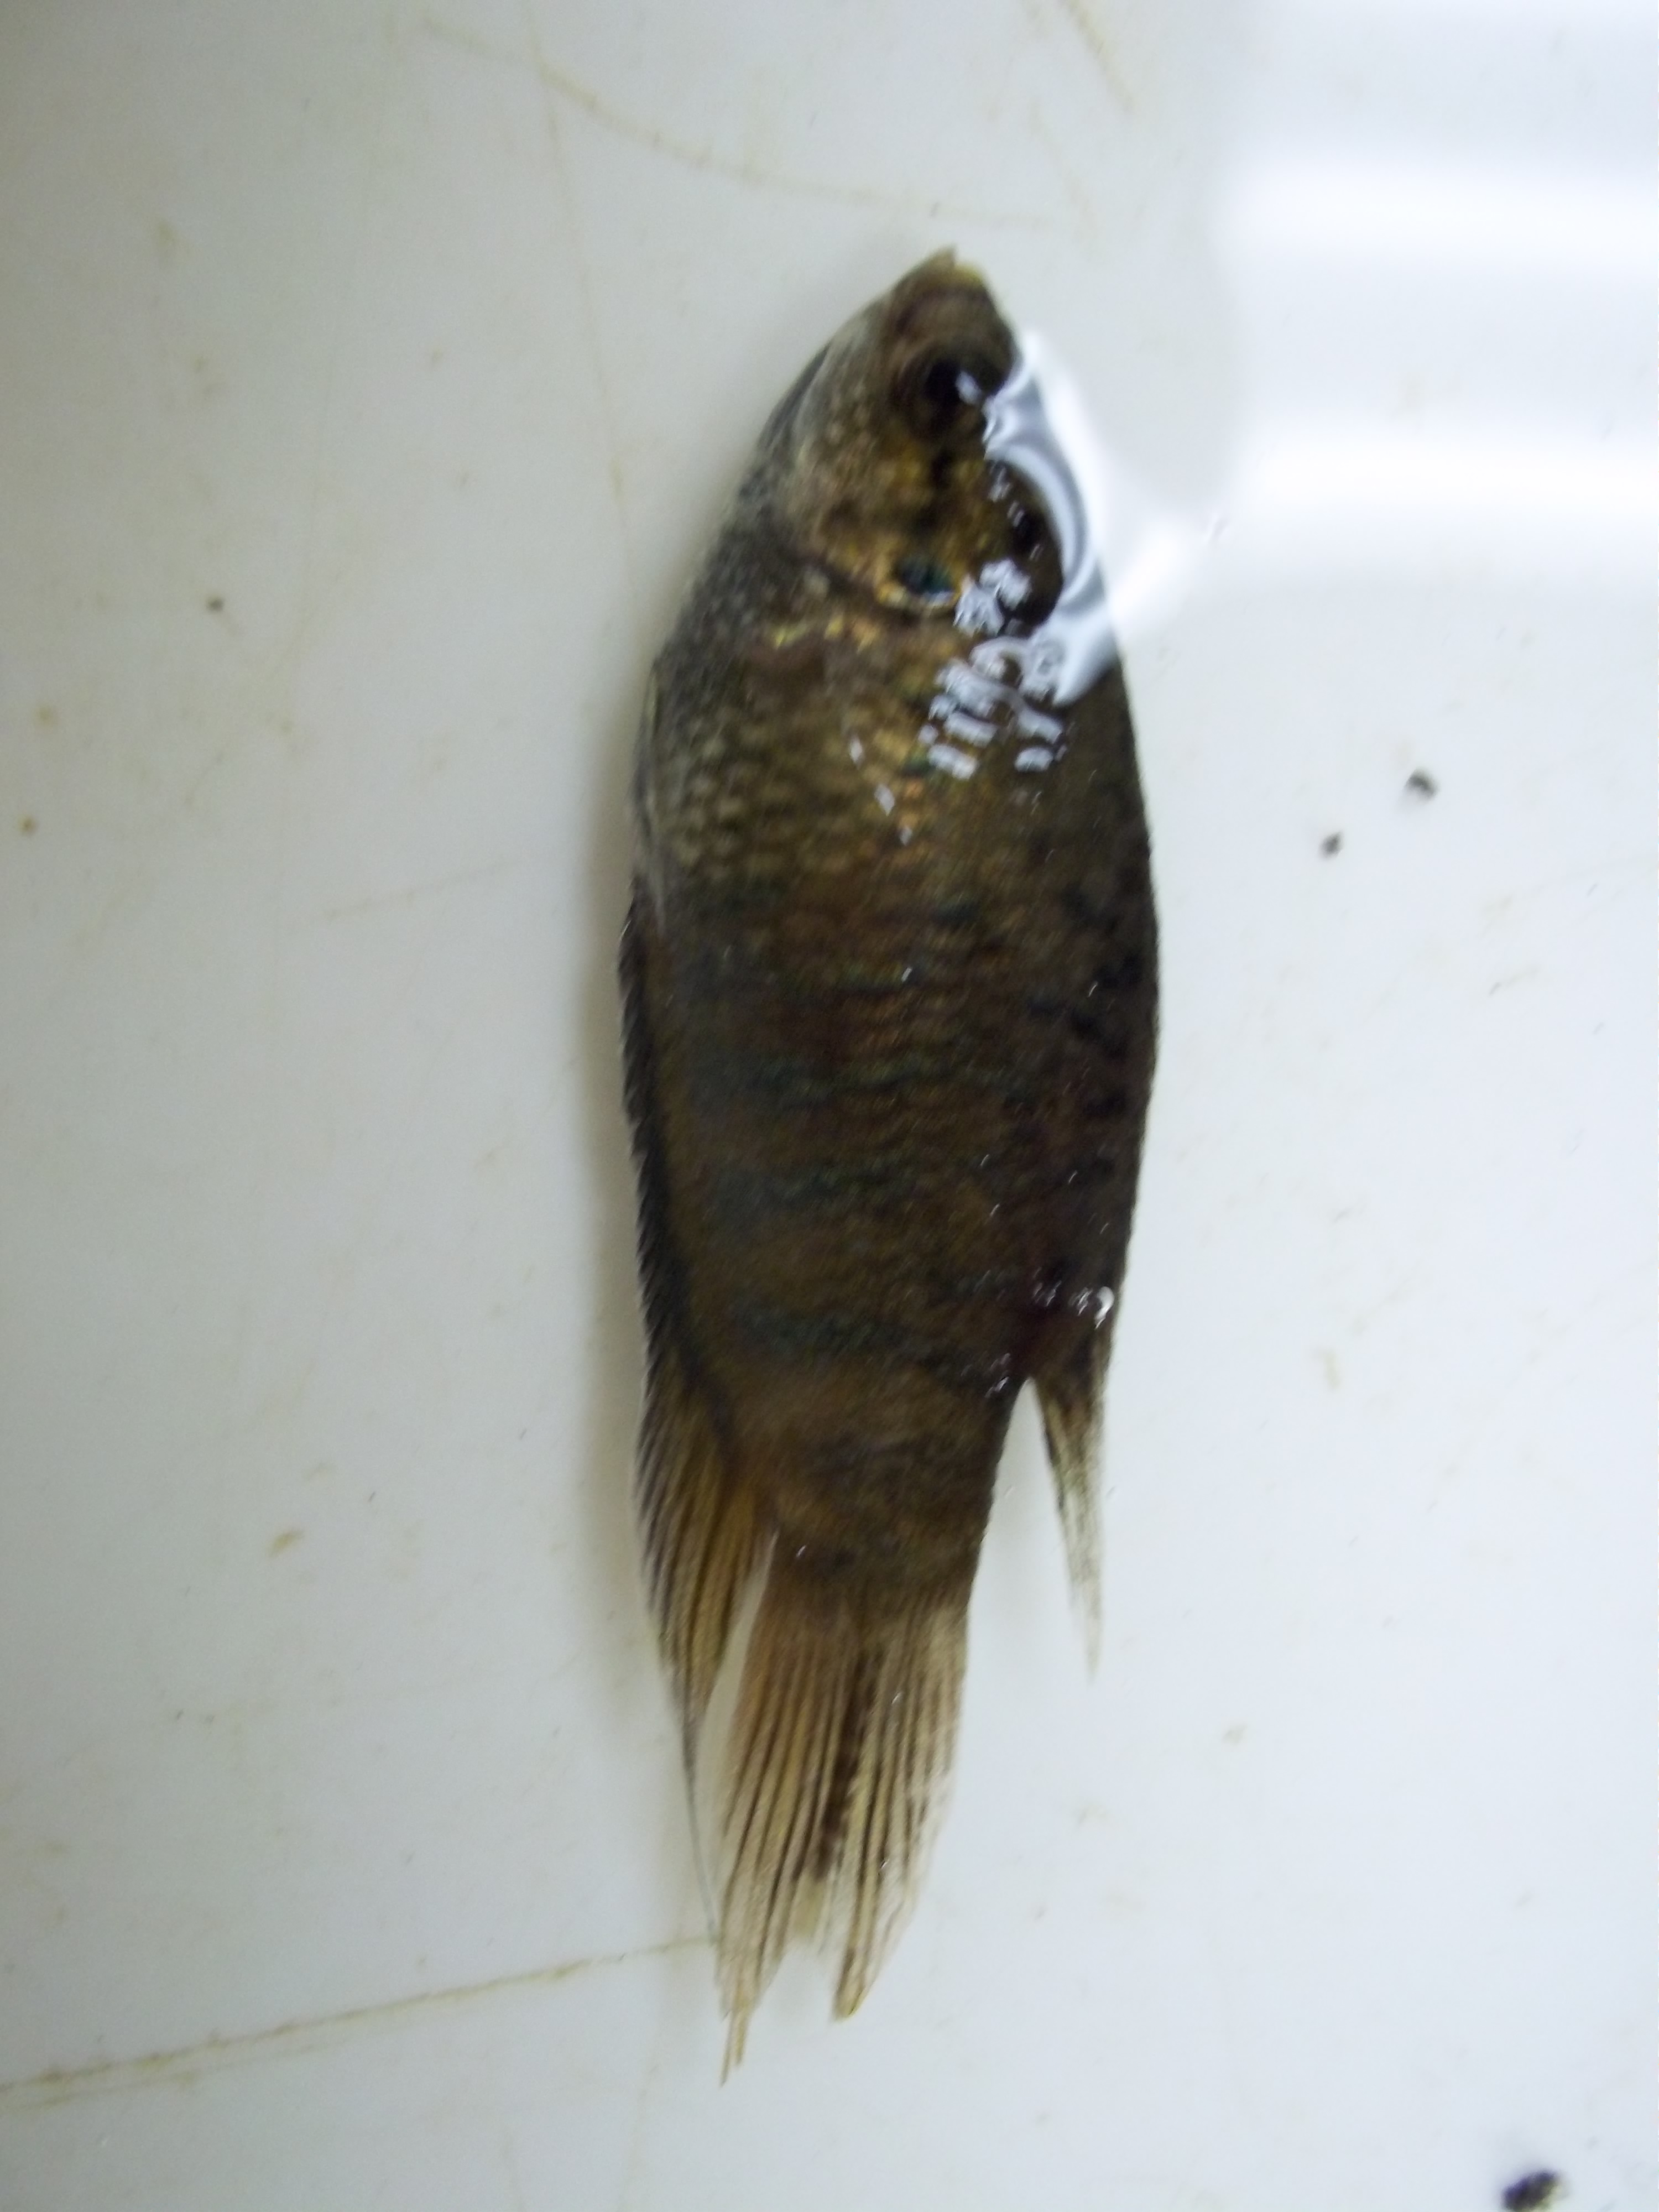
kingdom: Animalia
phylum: Chordata
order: Perciformes
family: Osphronemidae
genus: Macropodus
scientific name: Macropodus opercularis
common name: Paradise fish
